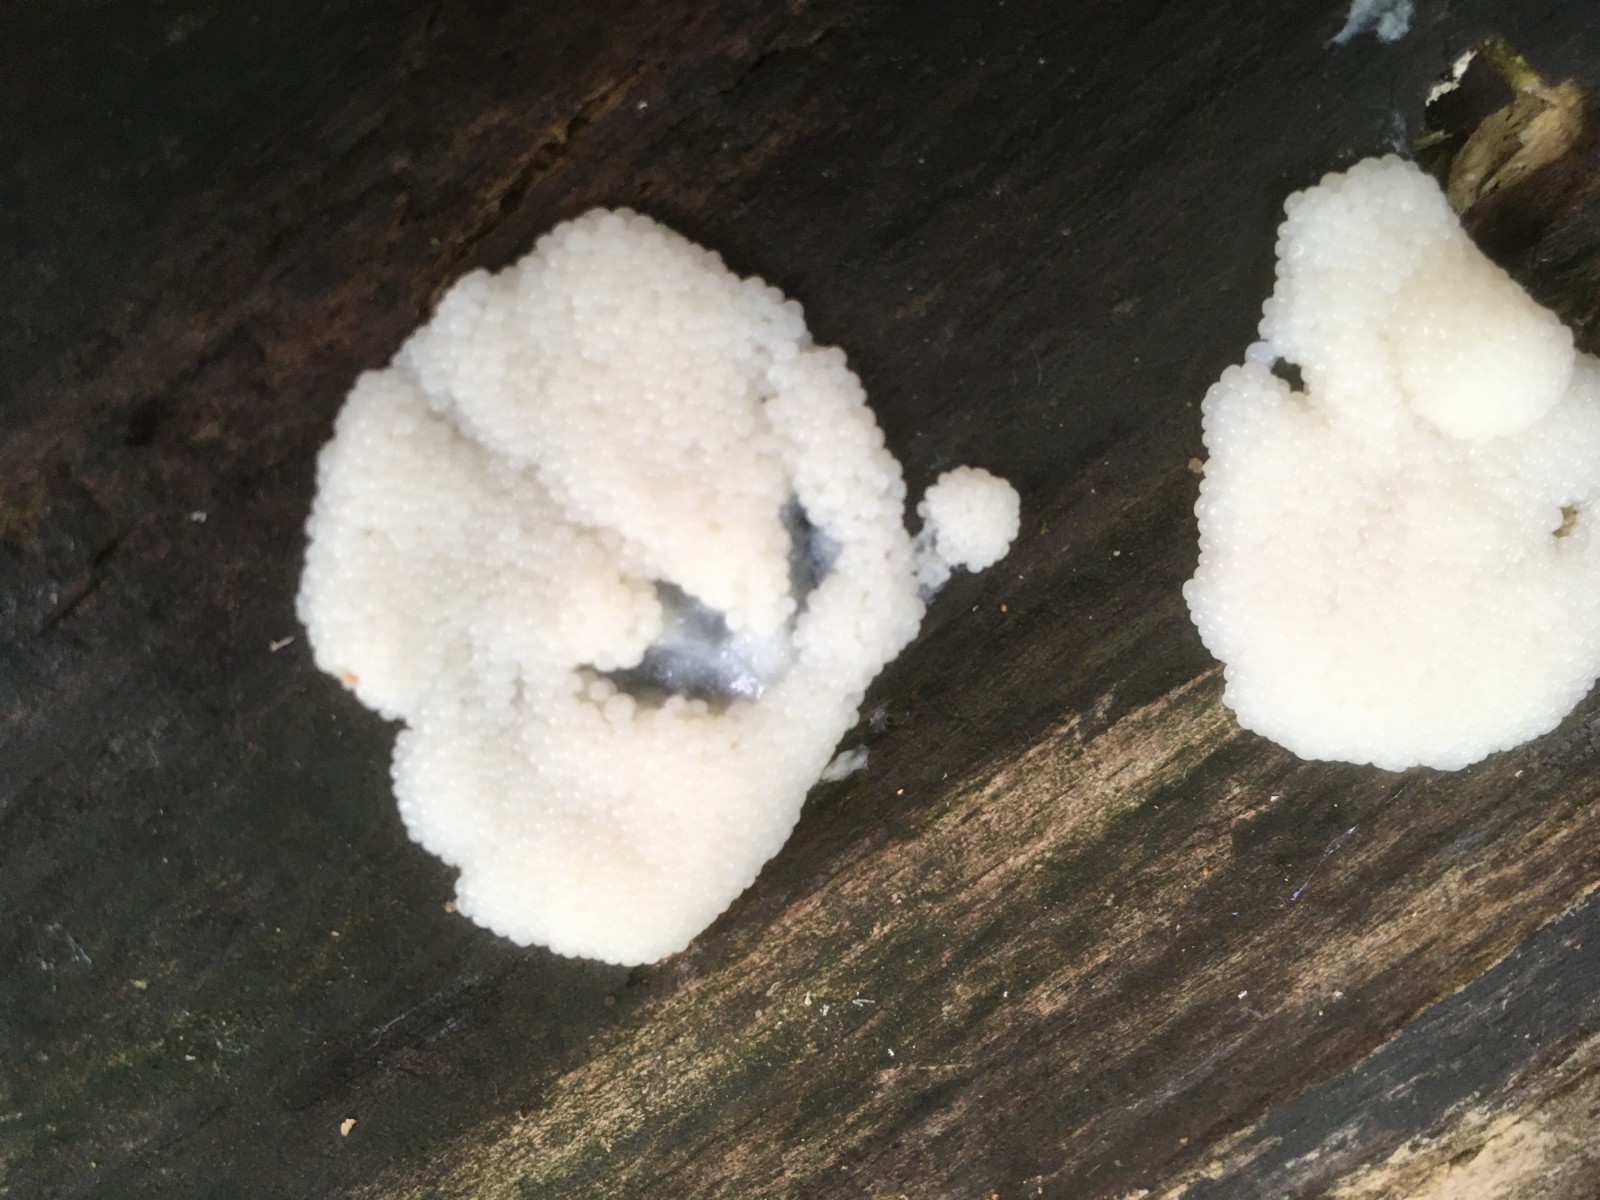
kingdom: Protozoa
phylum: Mycetozoa
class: Myxomycetes
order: Stemonitidales
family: Stemonitidaceae
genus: Stemonitis
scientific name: Stemonitis fusca
